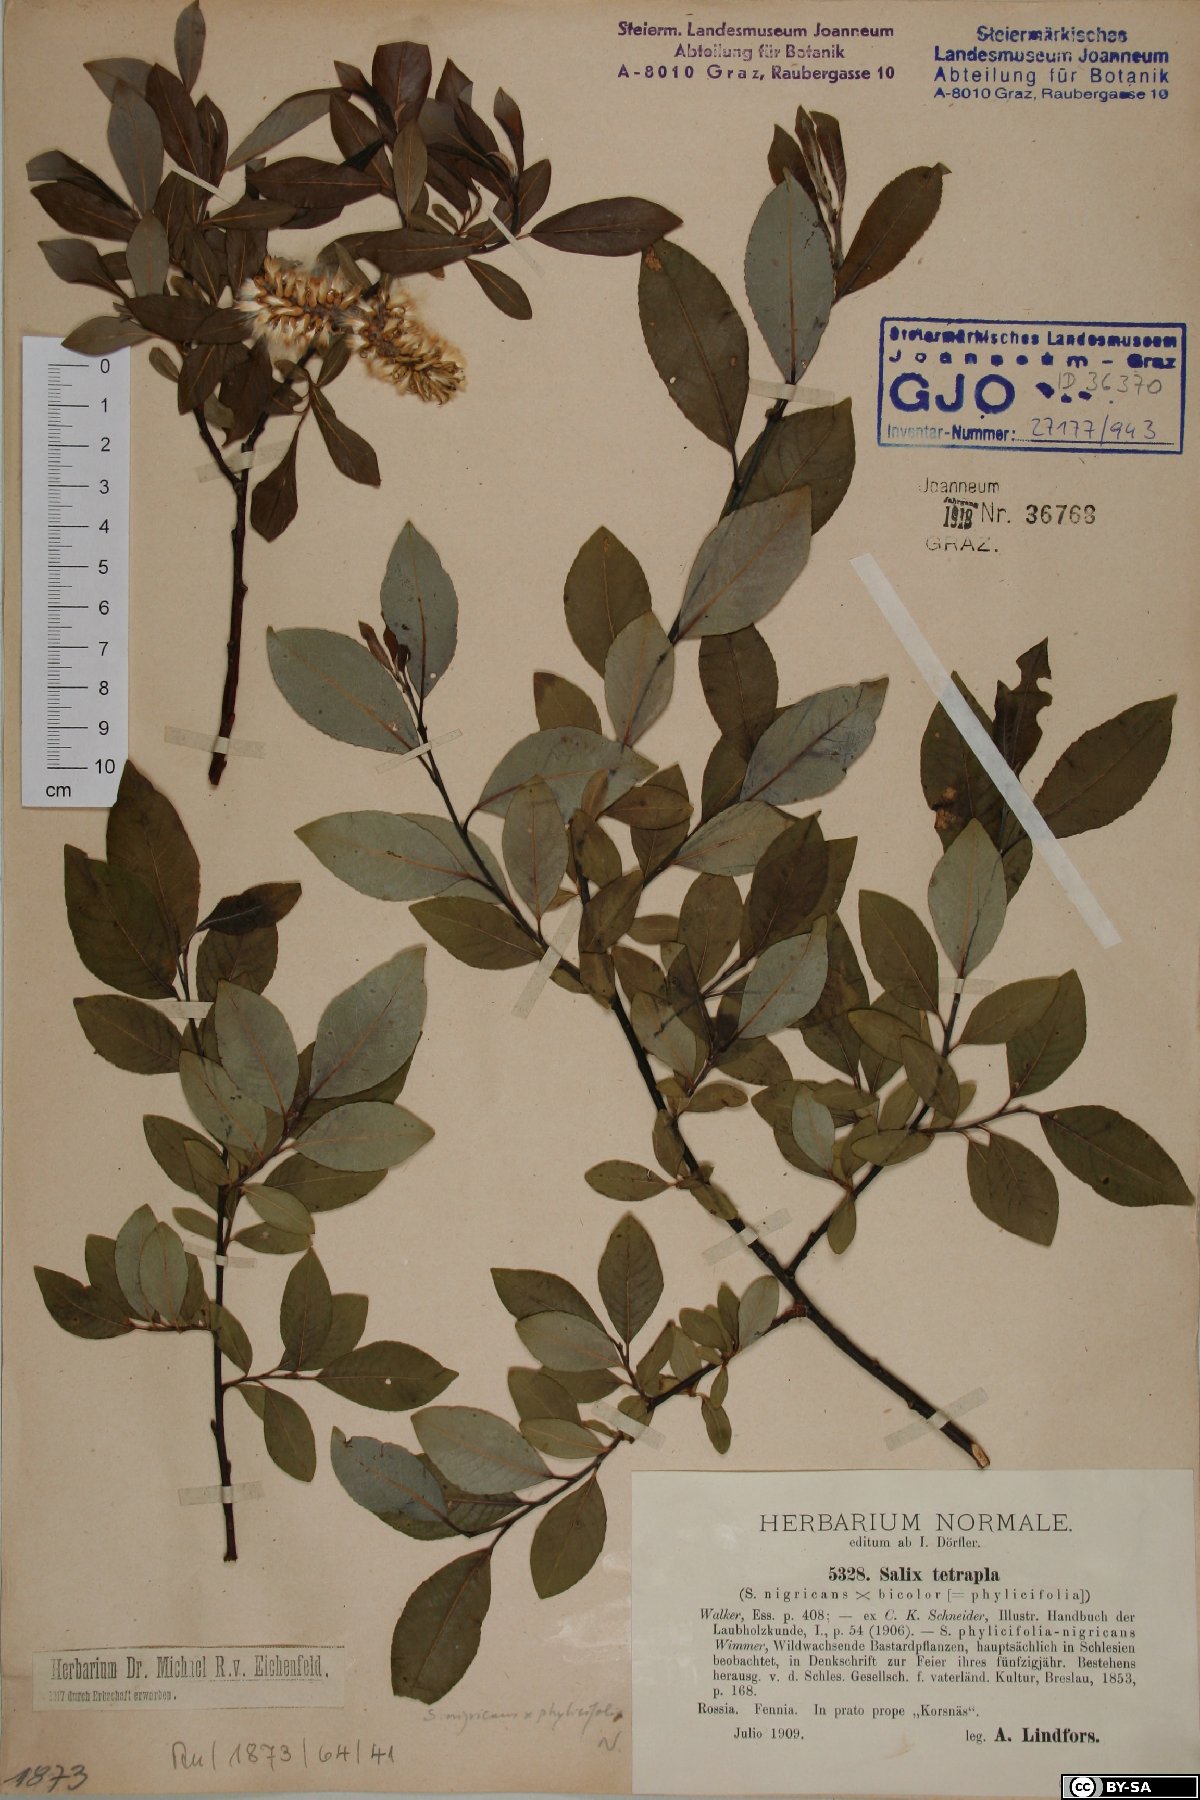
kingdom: Plantae
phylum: Tracheophyta
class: Magnoliopsida
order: Malpighiales
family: Salicaceae
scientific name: Salicaceae
